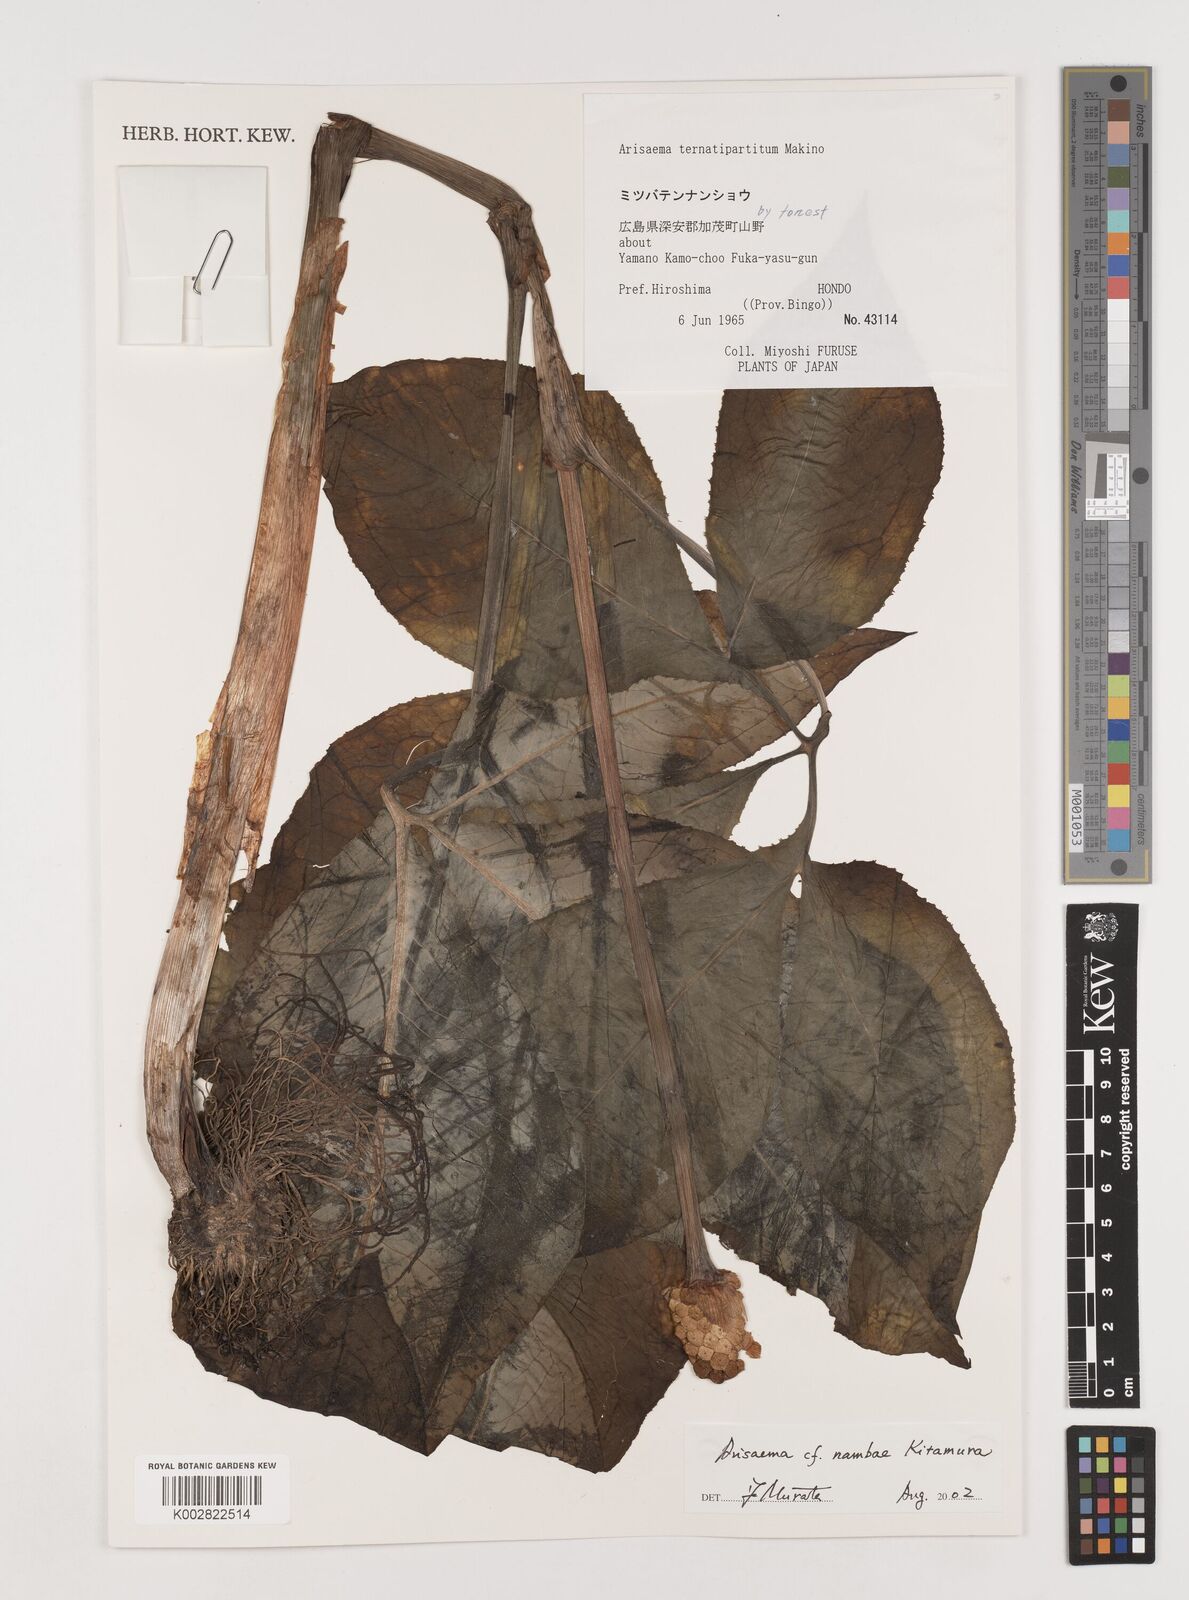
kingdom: Plantae
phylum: Tracheophyta
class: Liliopsida
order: Alismatales
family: Araceae
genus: Arisaema
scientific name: Arisaema nambae
